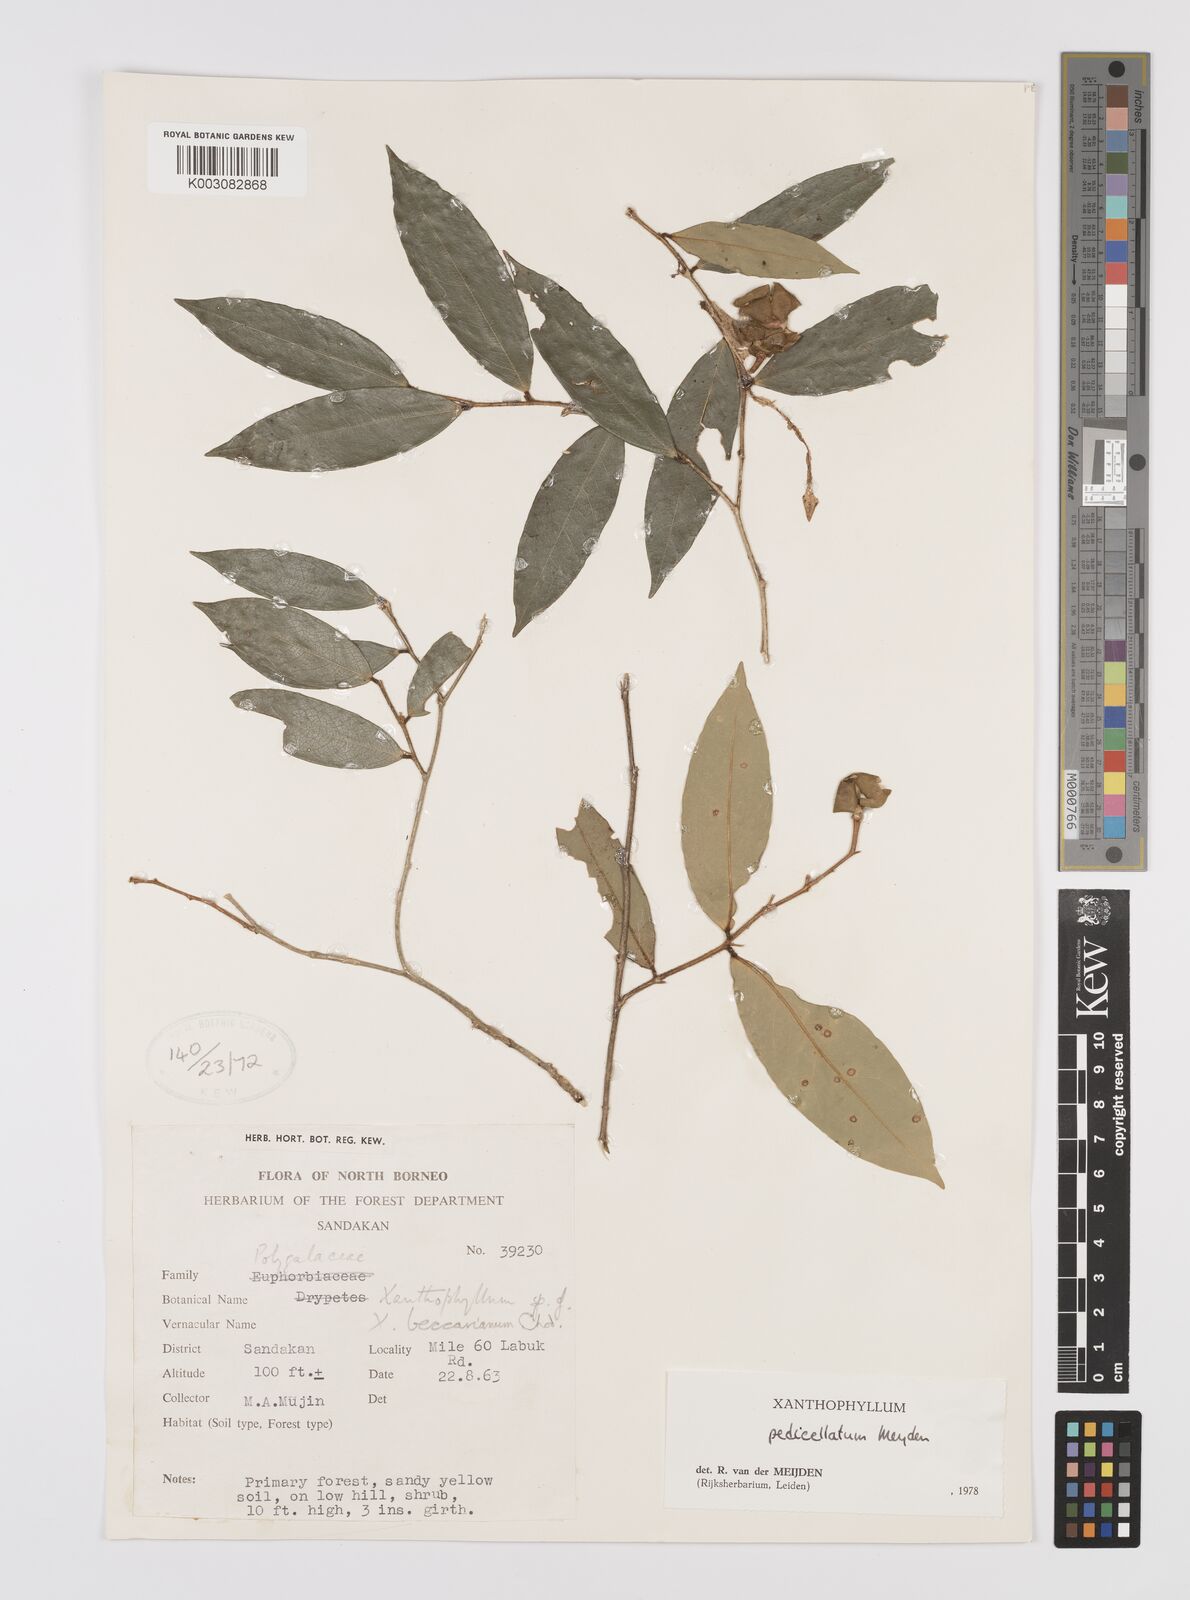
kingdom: Plantae
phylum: Tracheophyta
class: Magnoliopsida
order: Fabales
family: Polygalaceae
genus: Xanthophyllum
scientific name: Xanthophyllum pedicellatum
